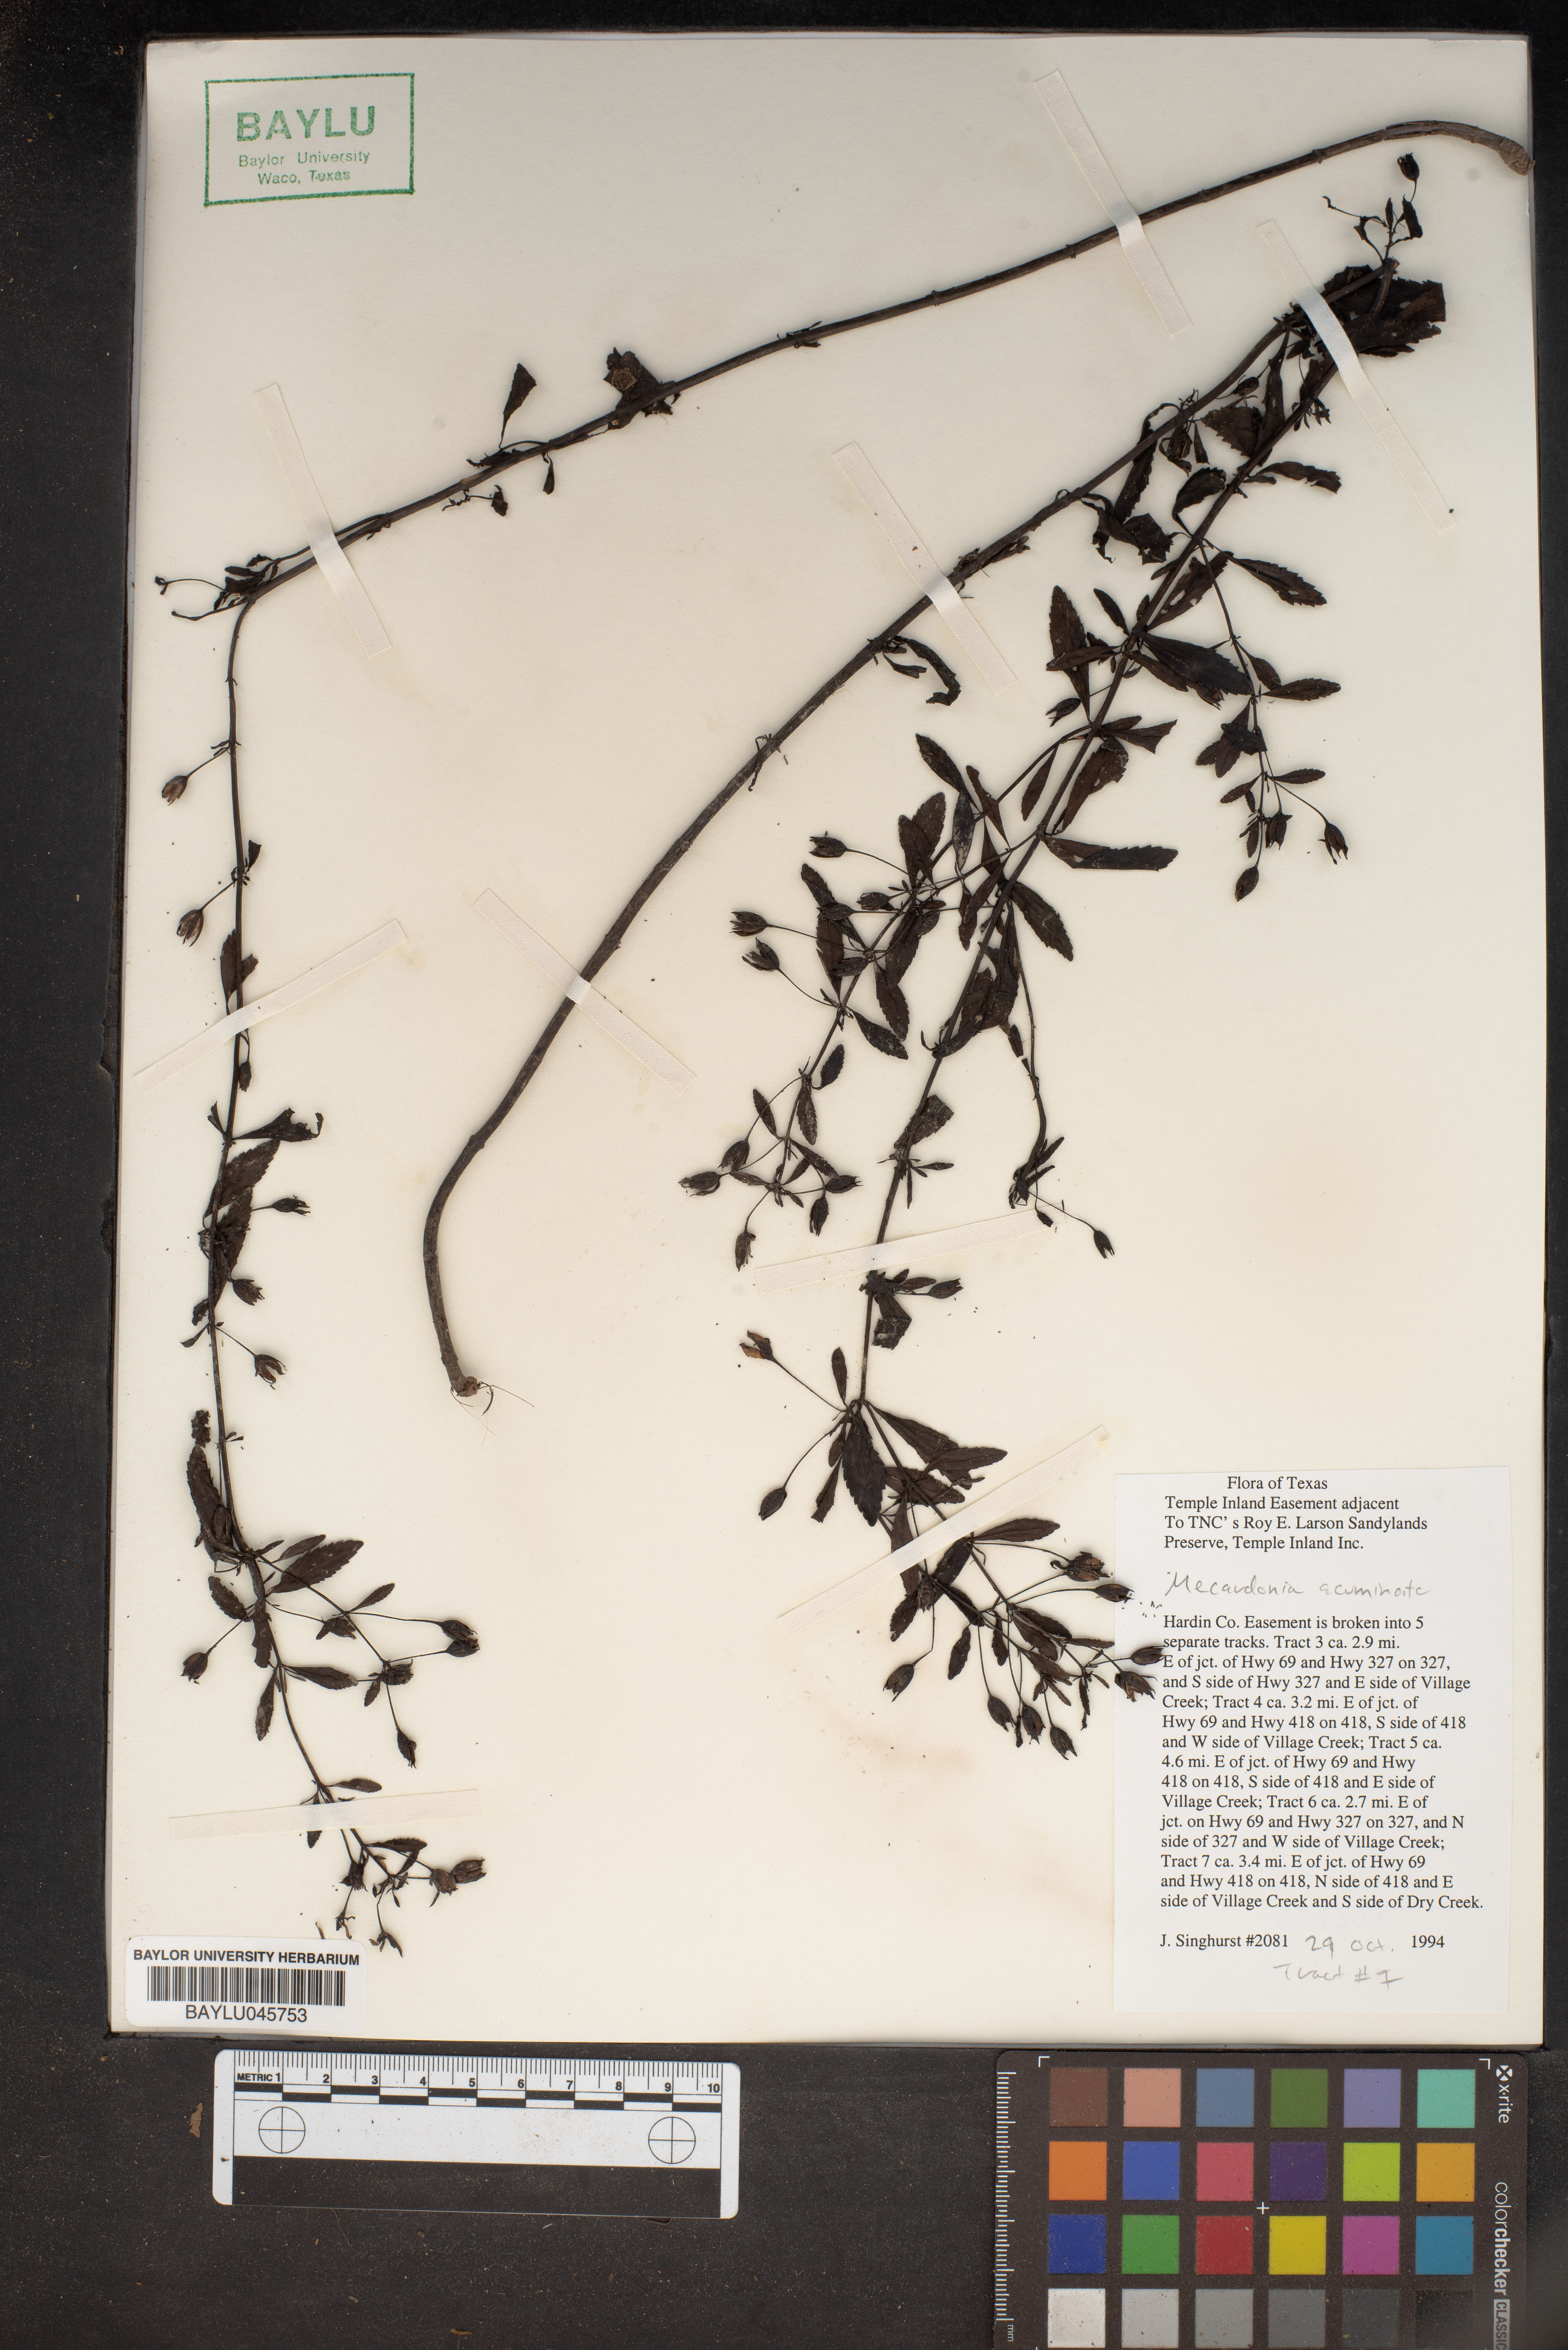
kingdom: Plantae
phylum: Tracheophyta
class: Magnoliopsida
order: Lamiales
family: Plantaginaceae
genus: Mecardonia
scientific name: Mecardonia acuminata
